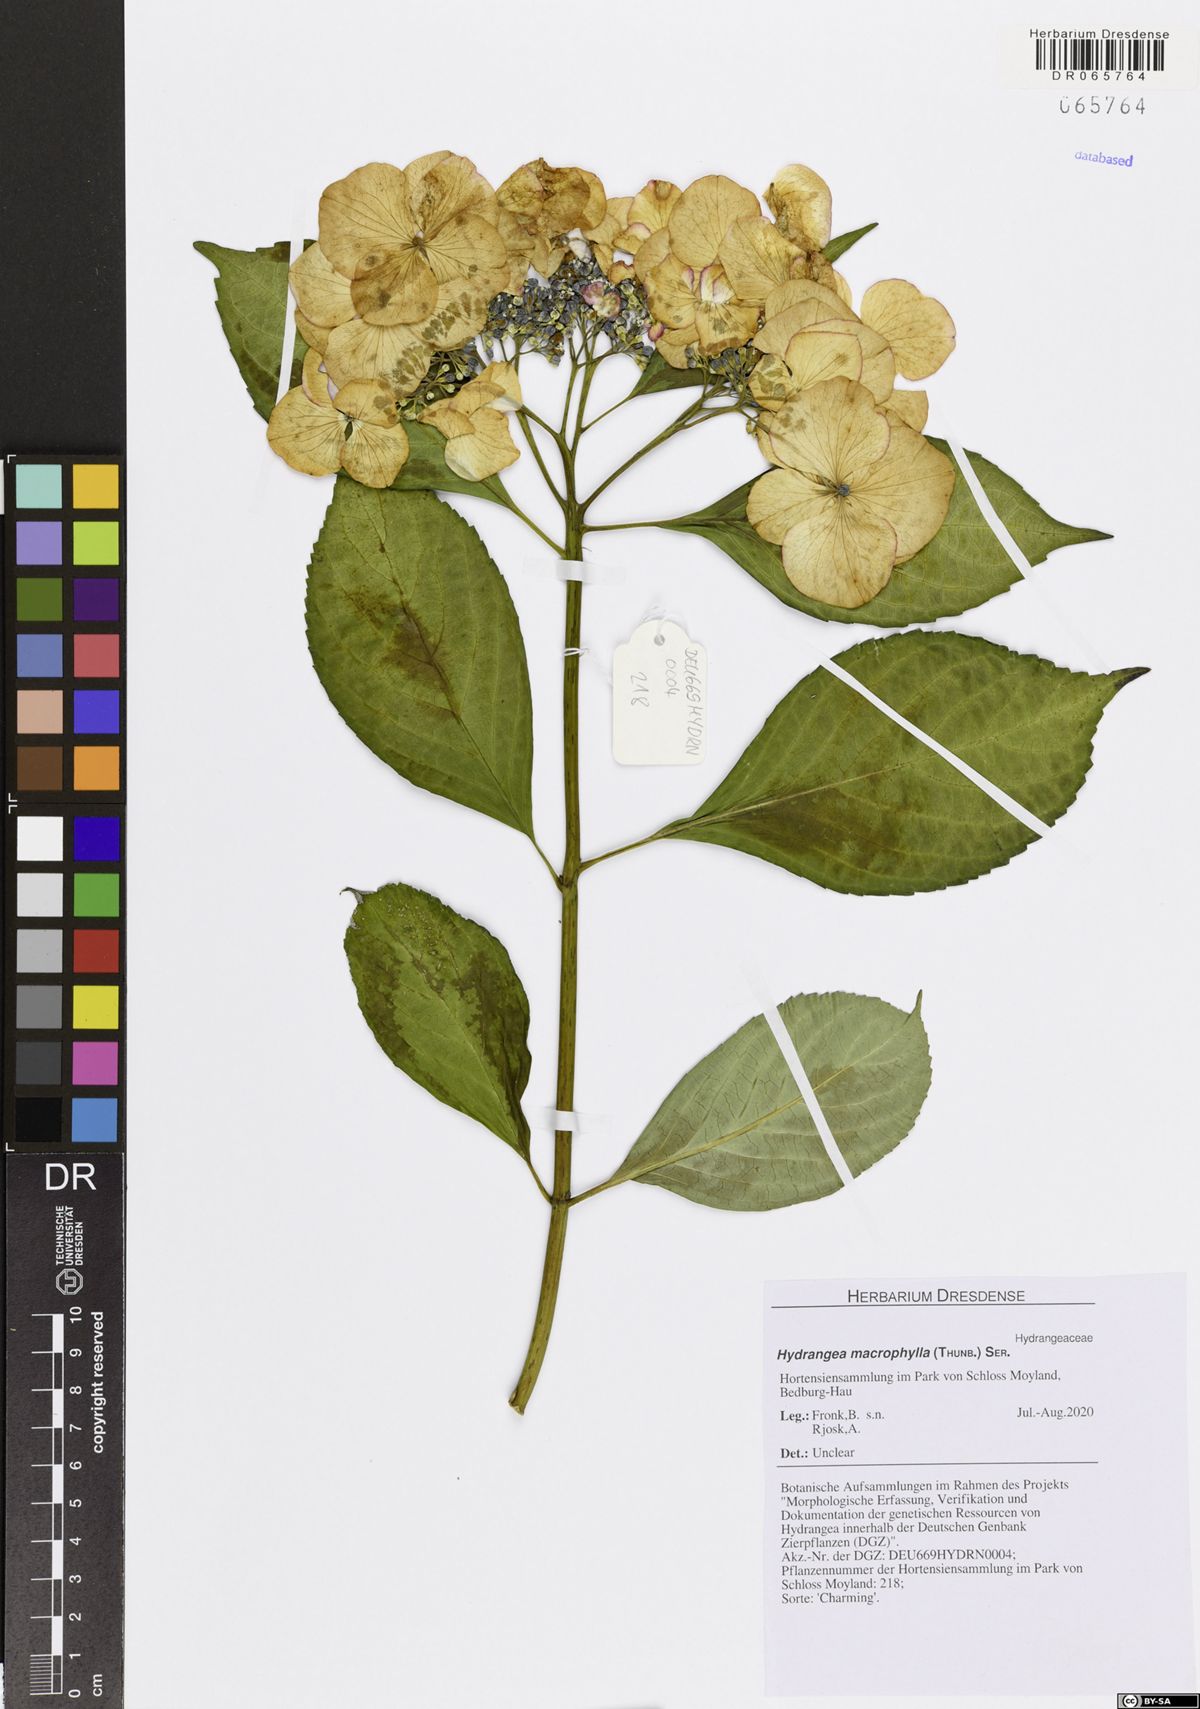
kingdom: Plantae
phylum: Tracheophyta
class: Magnoliopsida
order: Cornales
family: Hydrangeaceae
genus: Hydrangea
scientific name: Hydrangea macrophylla
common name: Hydrangea
